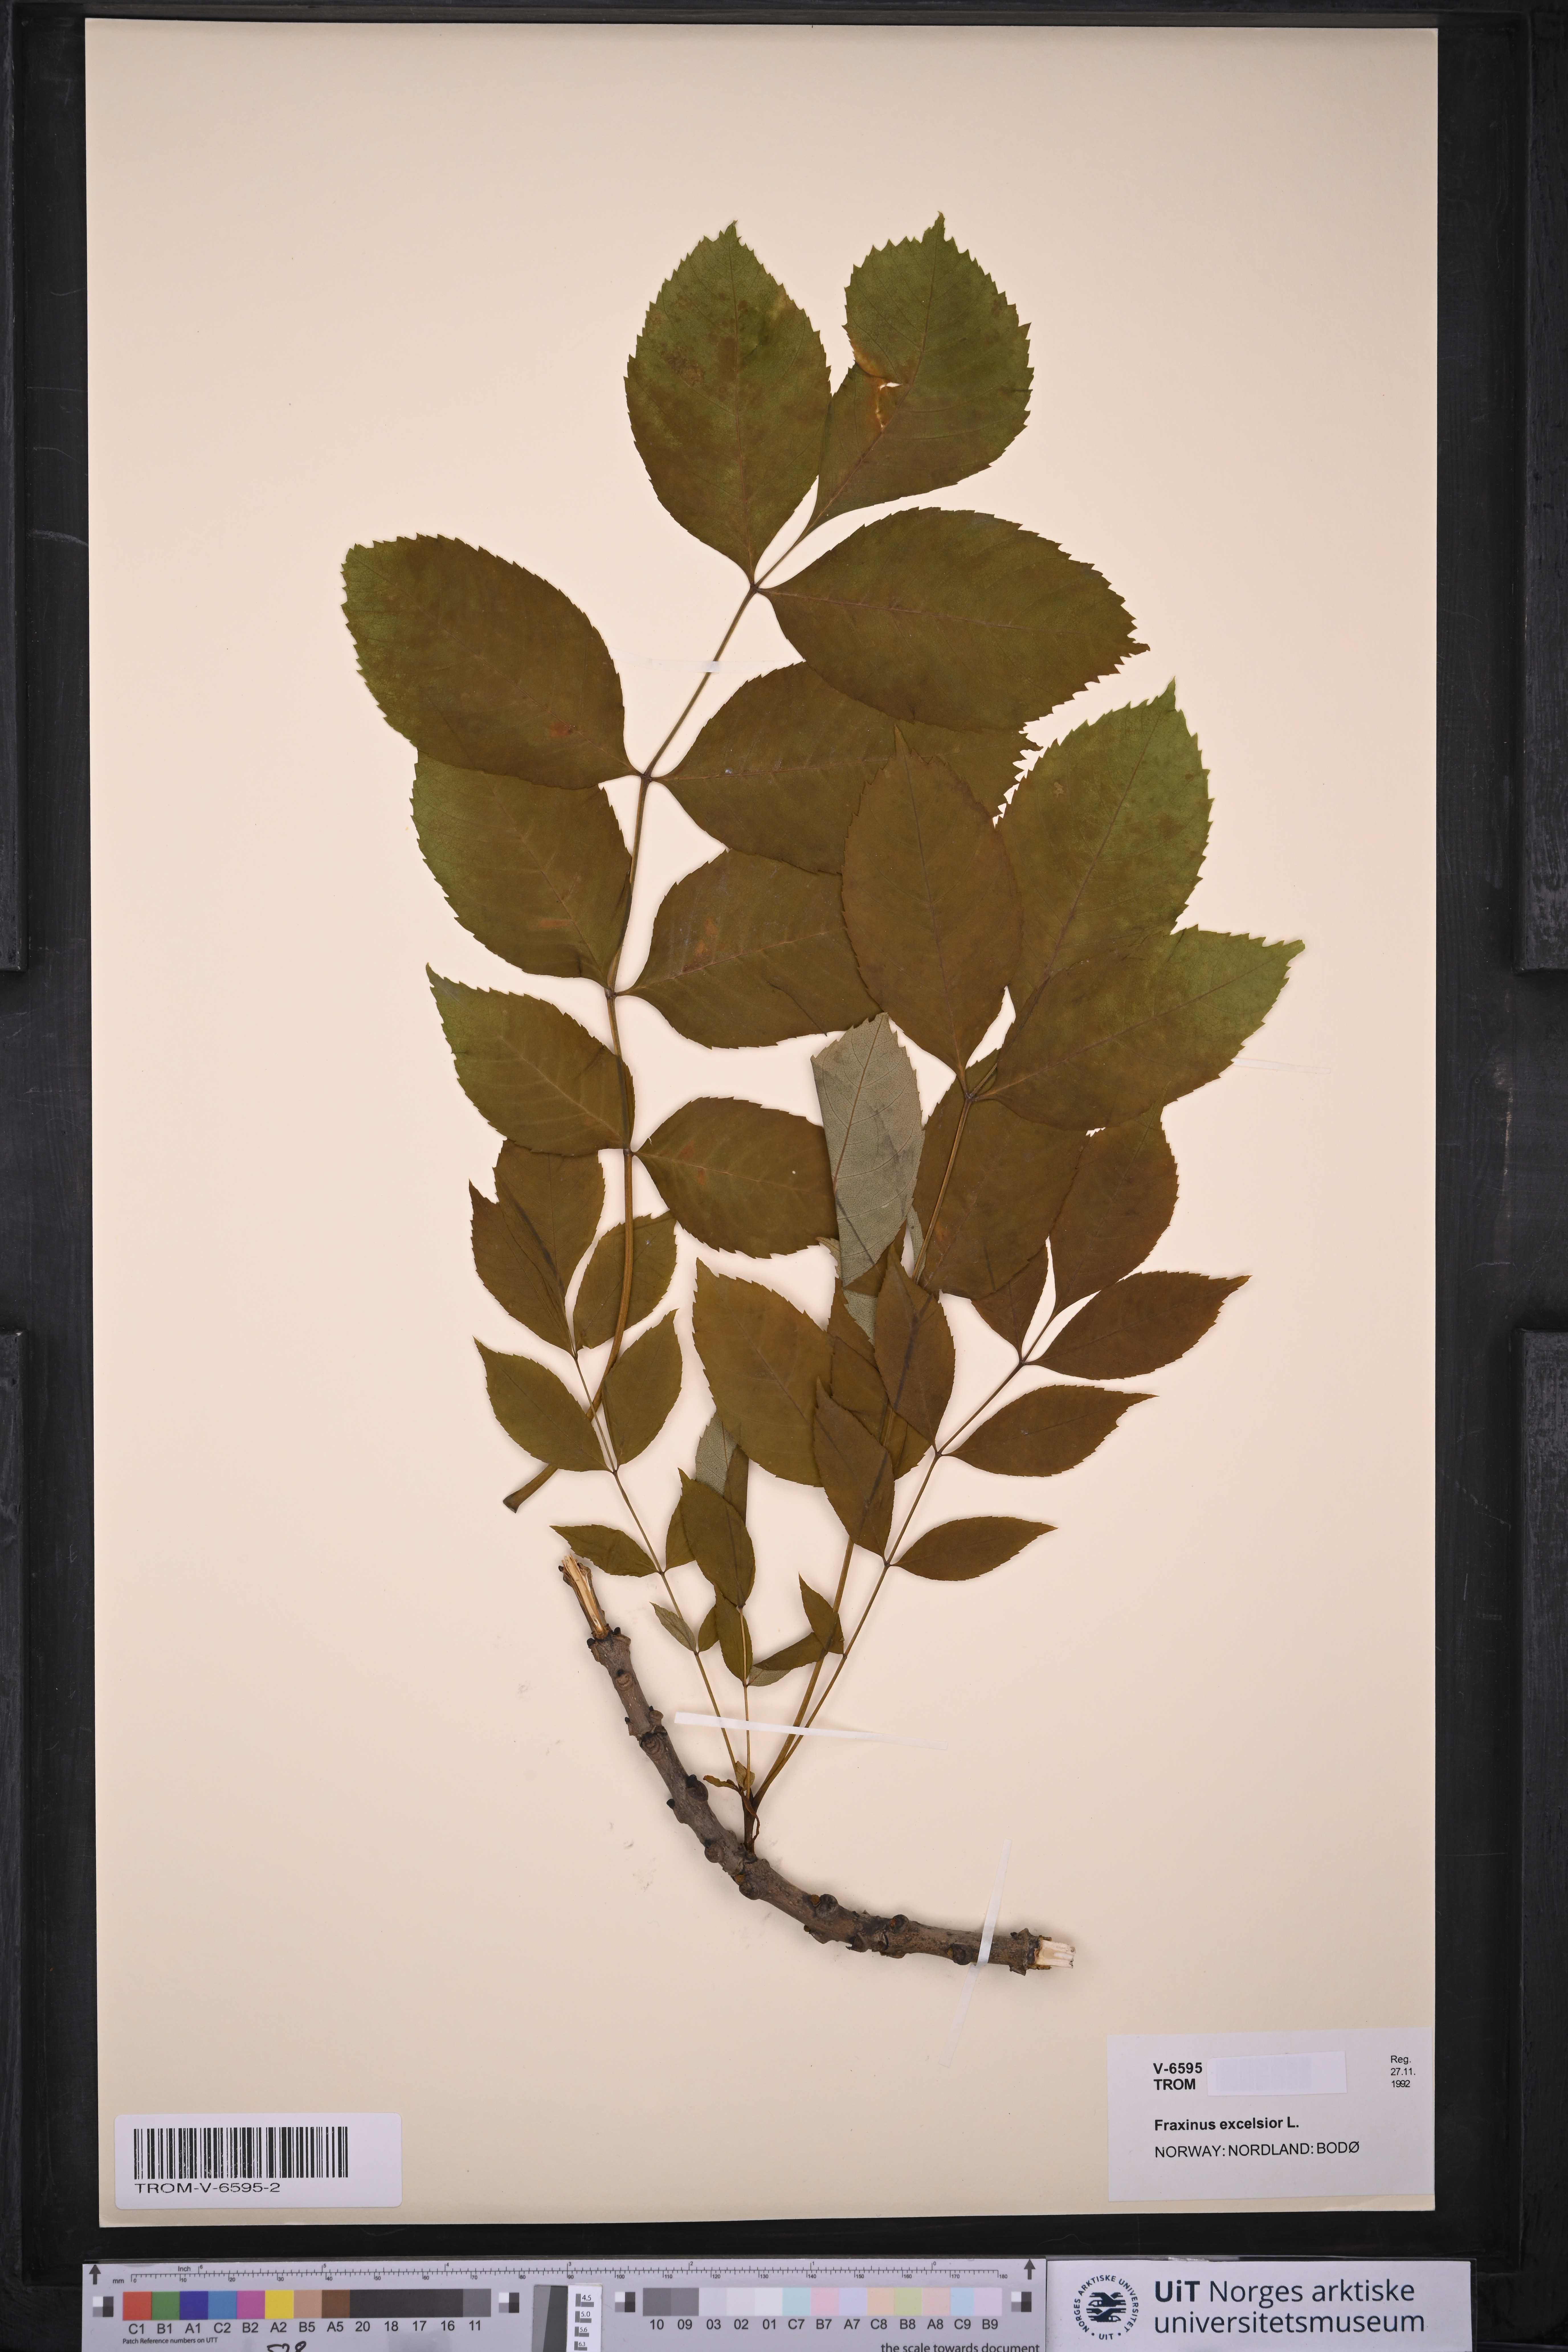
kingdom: Plantae
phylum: Tracheophyta
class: Magnoliopsida
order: Lamiales
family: Oleaceae
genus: Fraxinus
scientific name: Fraxinus excelsior
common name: European ash
